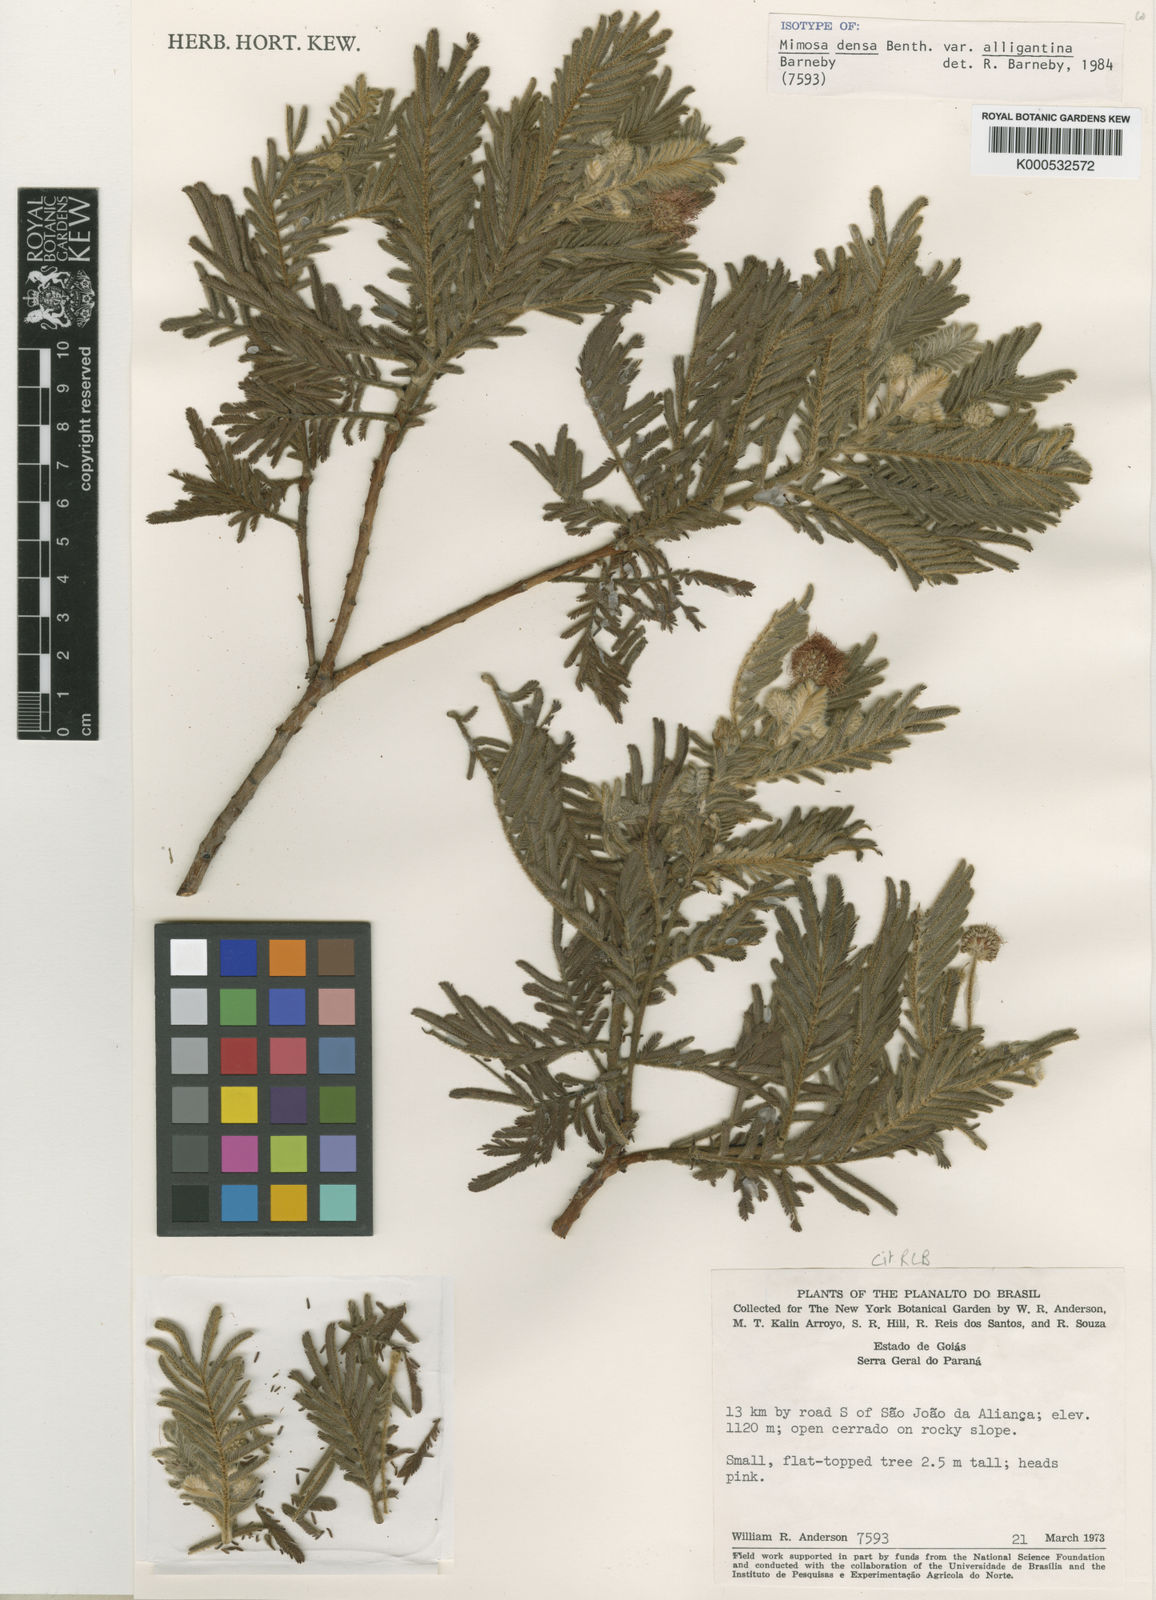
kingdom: Plantae
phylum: Tracheophyta
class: Magnoliopsida
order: Fabales
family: Fabaceae
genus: Mimosa
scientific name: Mimosa densa
